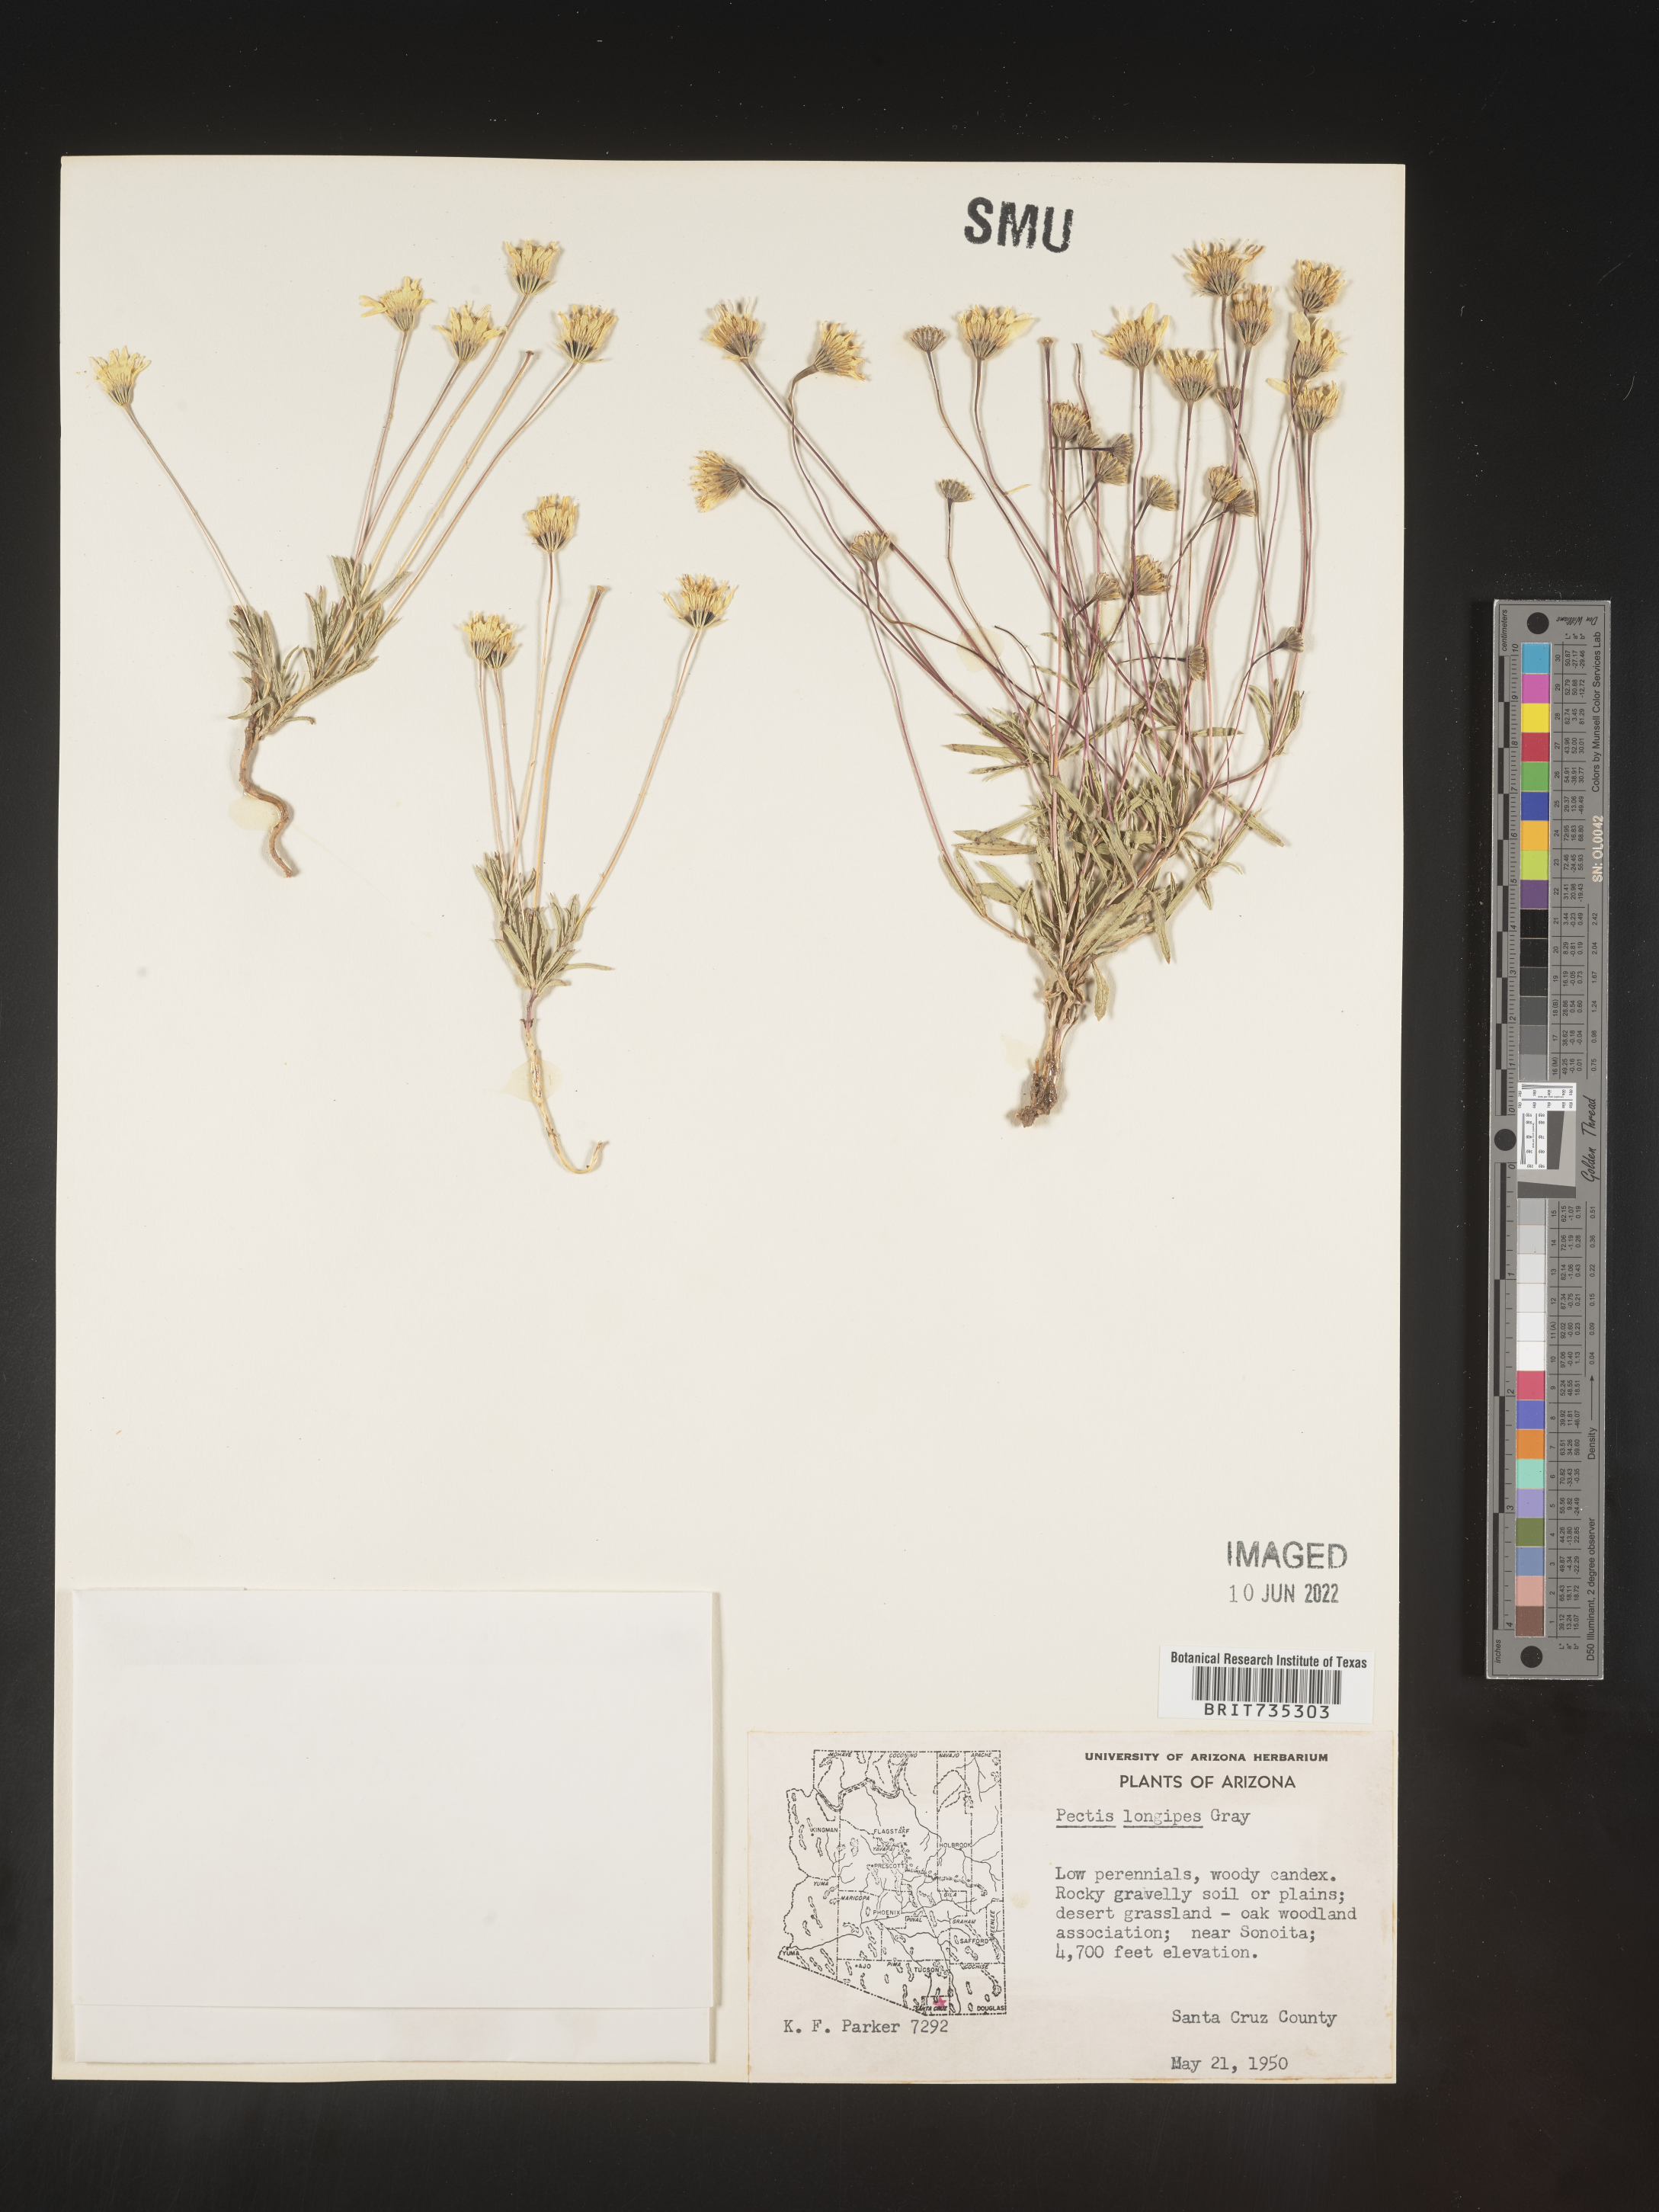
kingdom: Plantae
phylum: Tracheophyta
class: Magnoliopsida
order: Asterales
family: Asteraceae
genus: Pectis
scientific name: Pectis longipes
